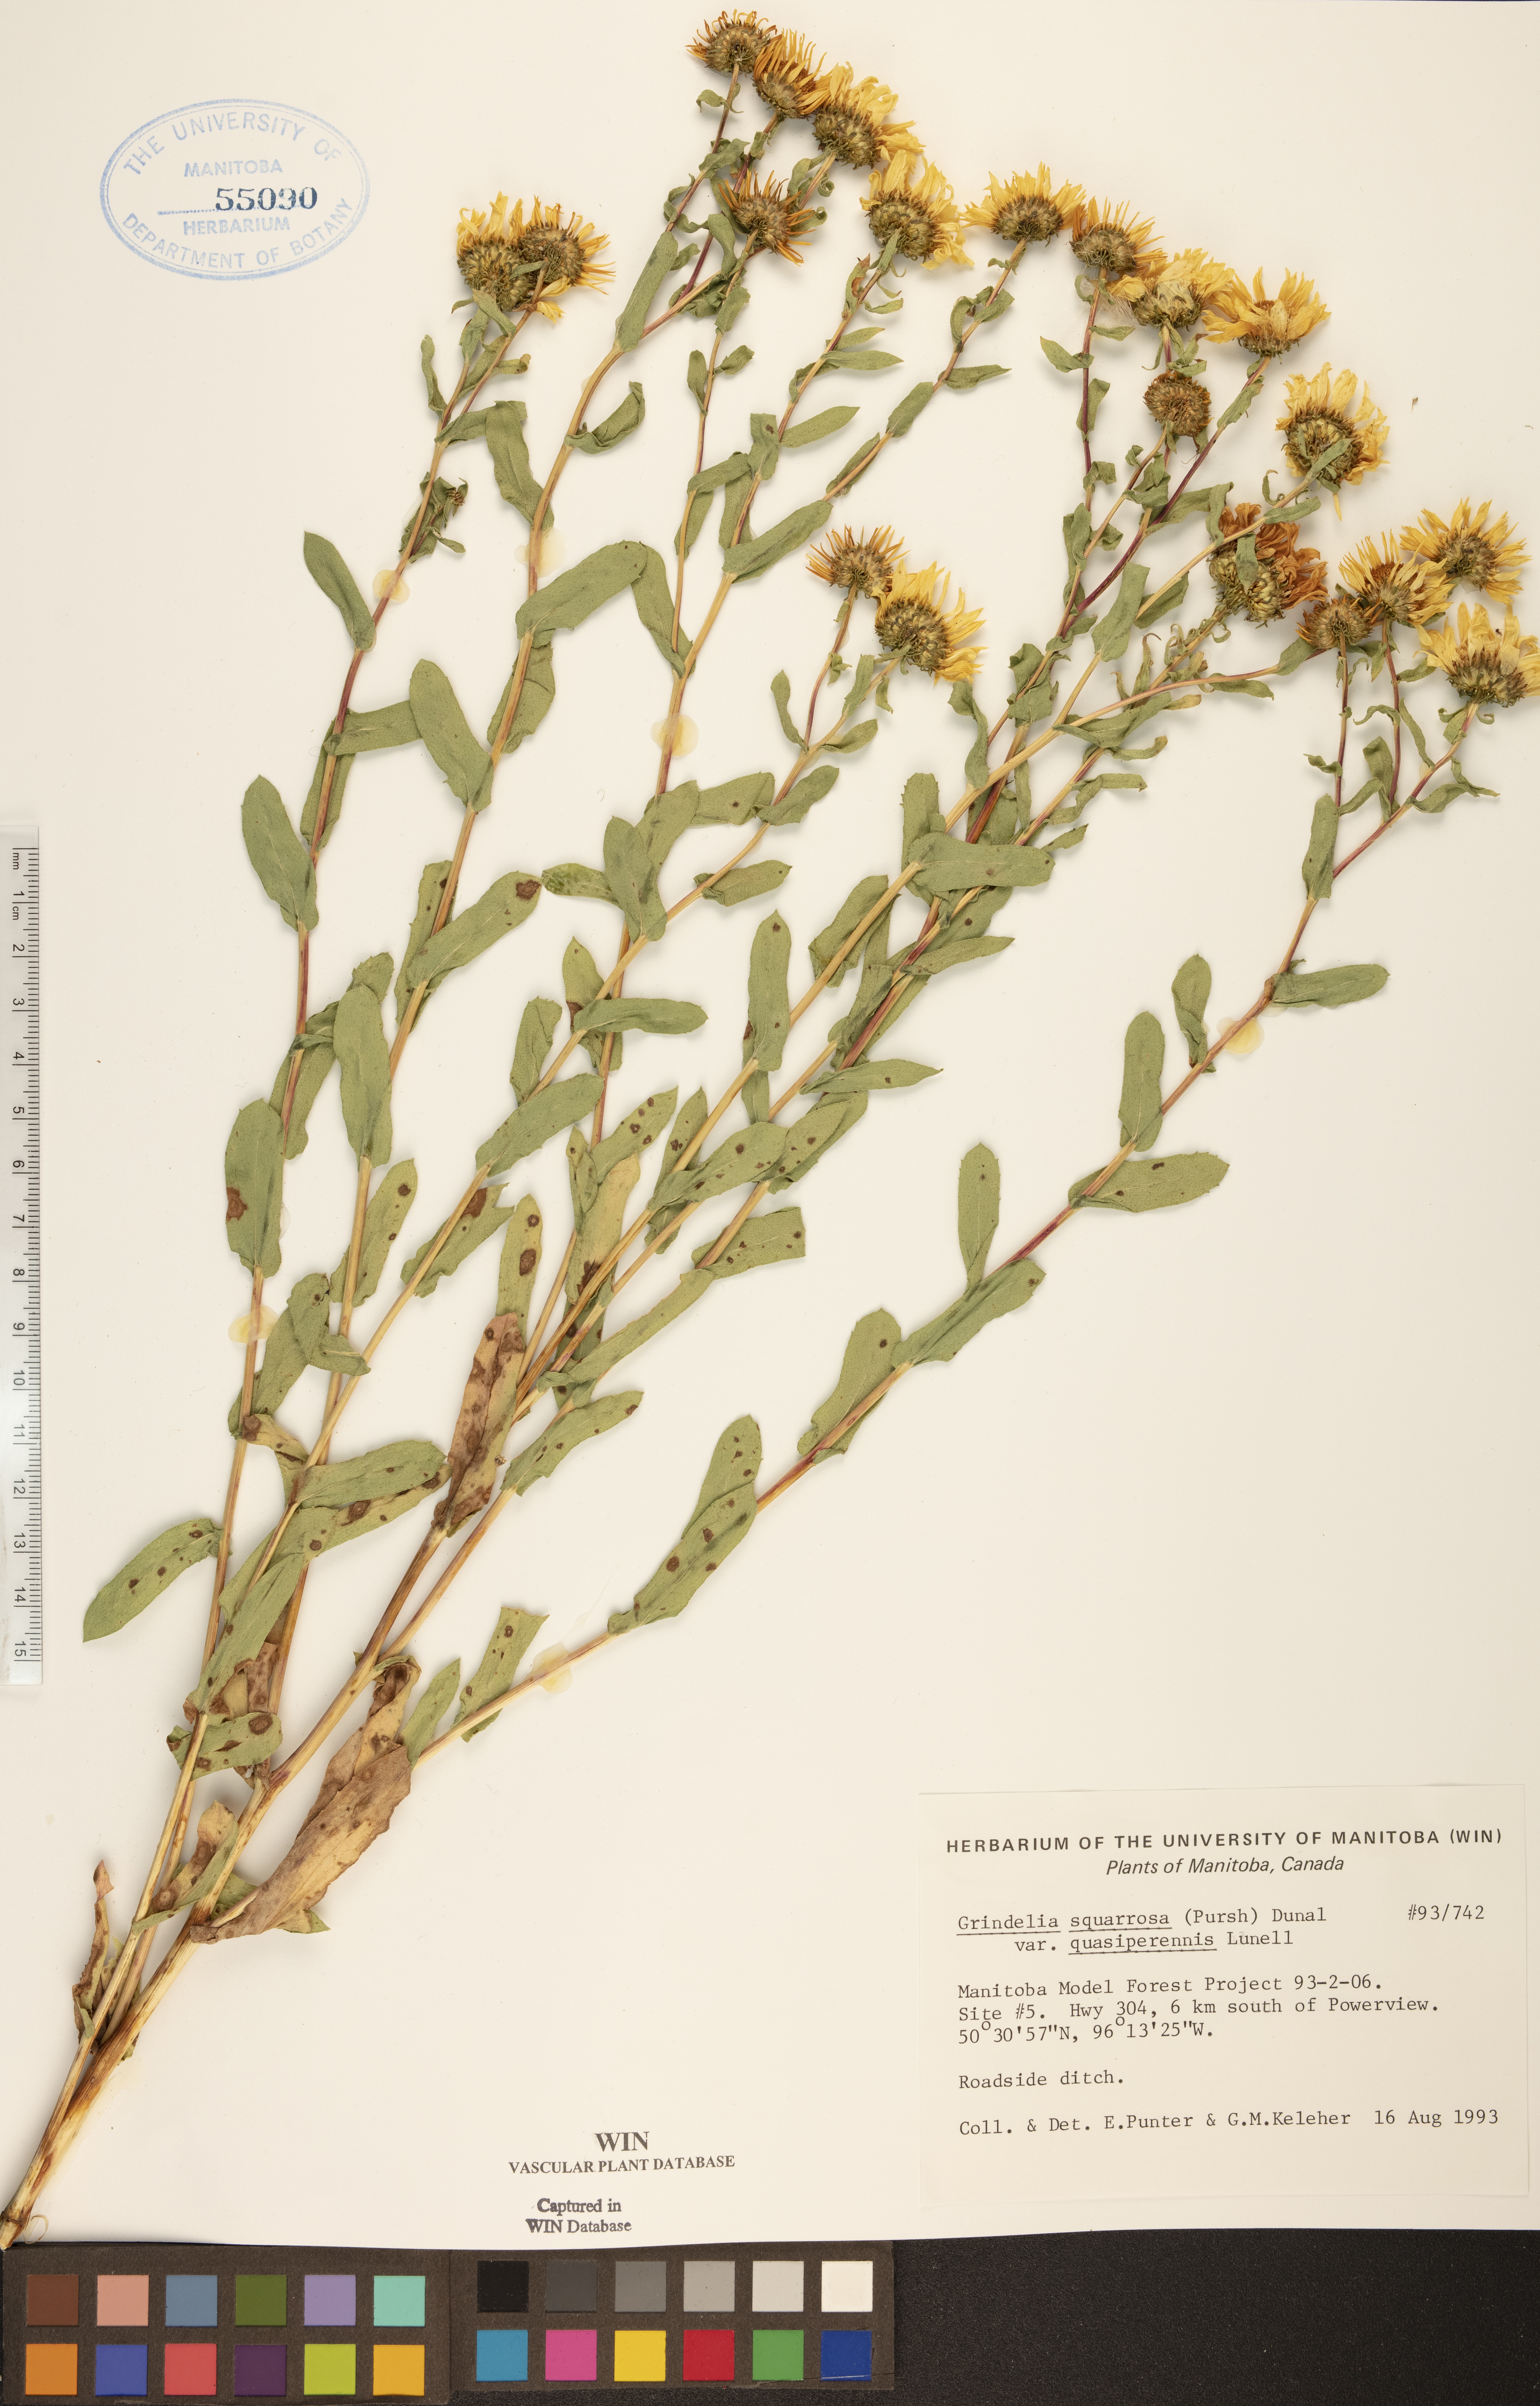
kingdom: Plantae
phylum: Tracheophyta
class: Magnoliopsida
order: Asterales
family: Asteraceae
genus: Grindelia
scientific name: Grindelia hirsutula
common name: Hairy gumweed
